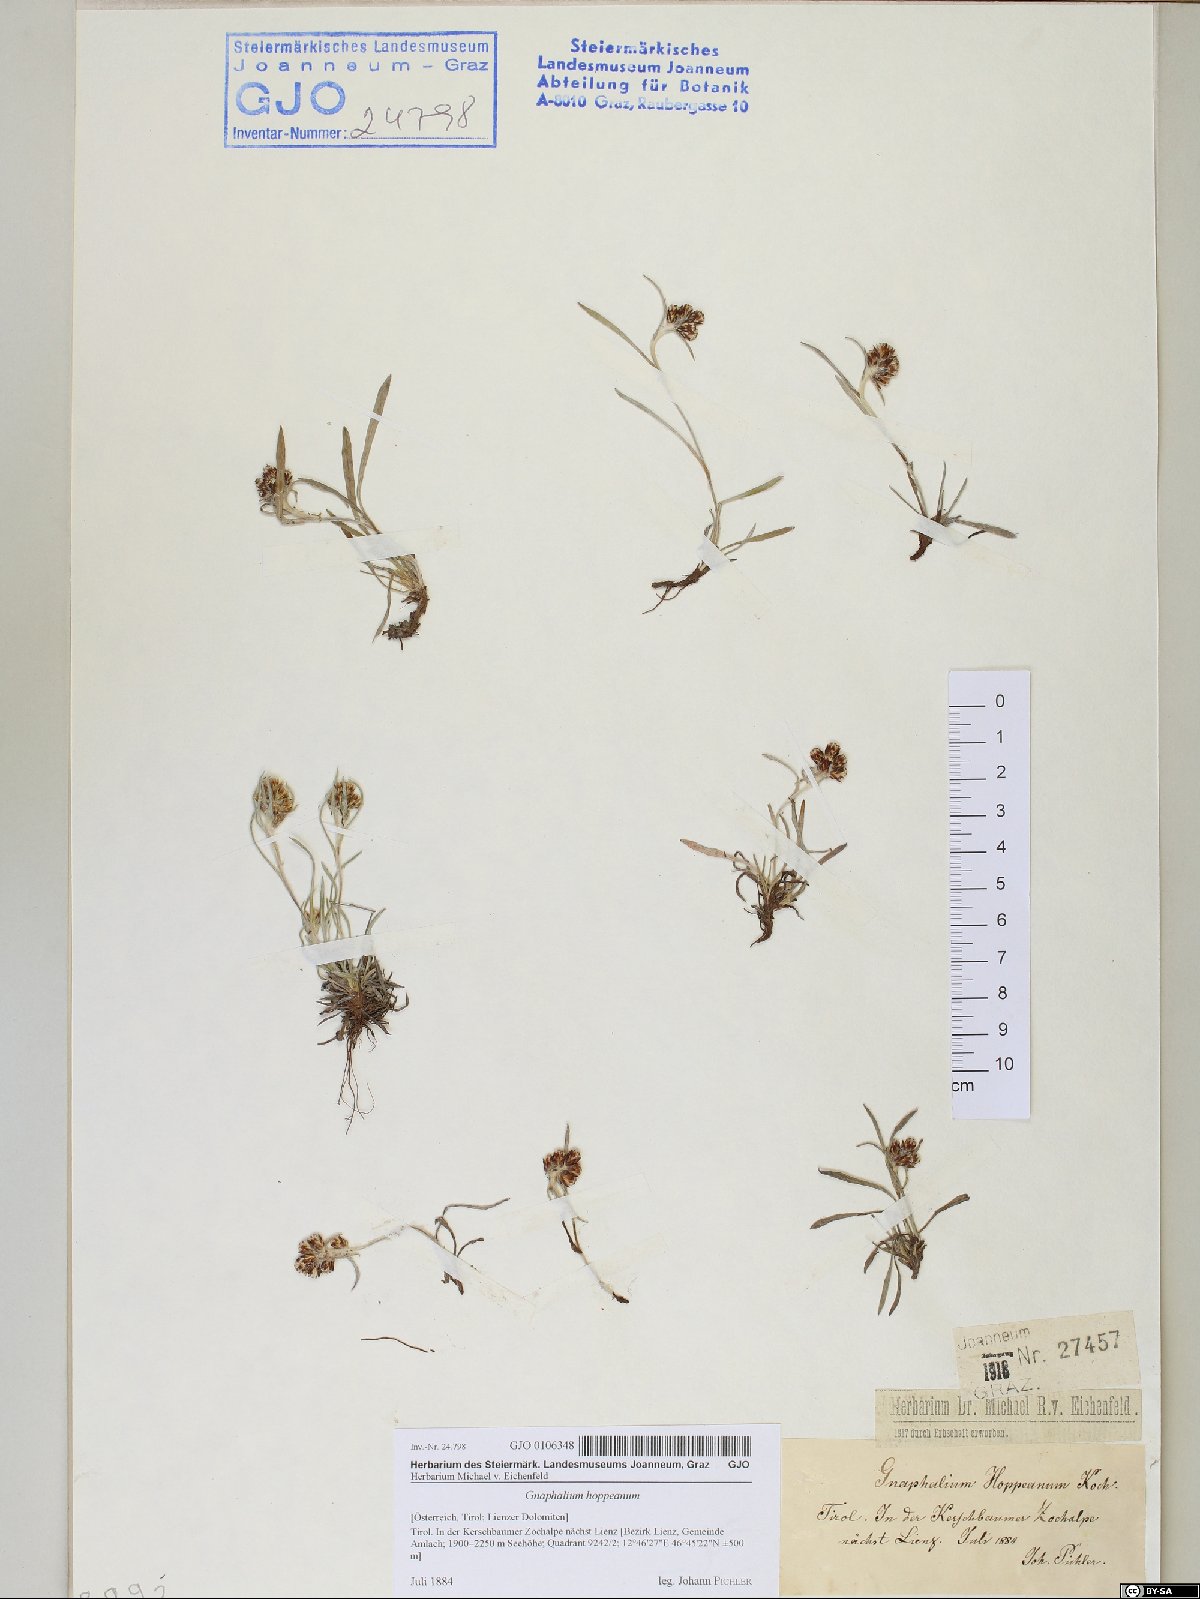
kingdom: Plantae
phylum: Tracheophyta
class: Magnoliopsida
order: Asterales
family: Asteraceae
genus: Omalotheca
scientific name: Omalotheca hoppeana
